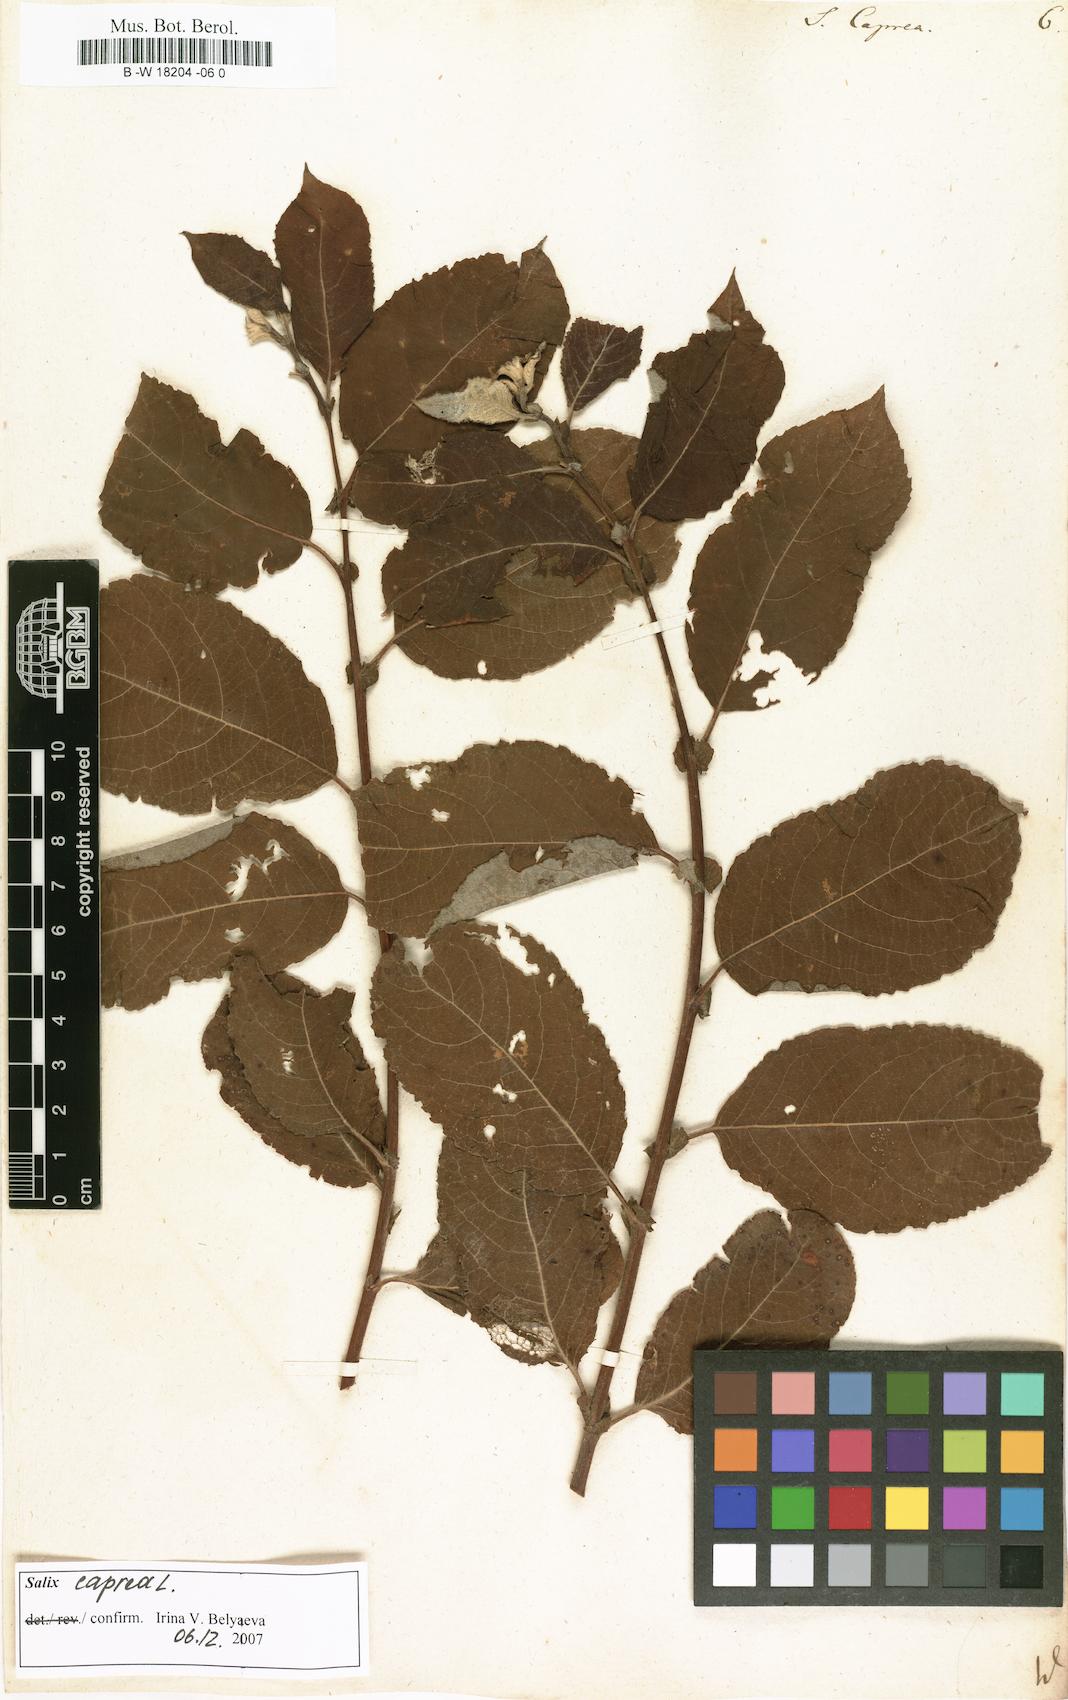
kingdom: Plantae
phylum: Tracheophyta
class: Magnoliopsida
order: Malpighiales
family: Salicaceae
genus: Salix
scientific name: Salix caprea
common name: Goat willow
